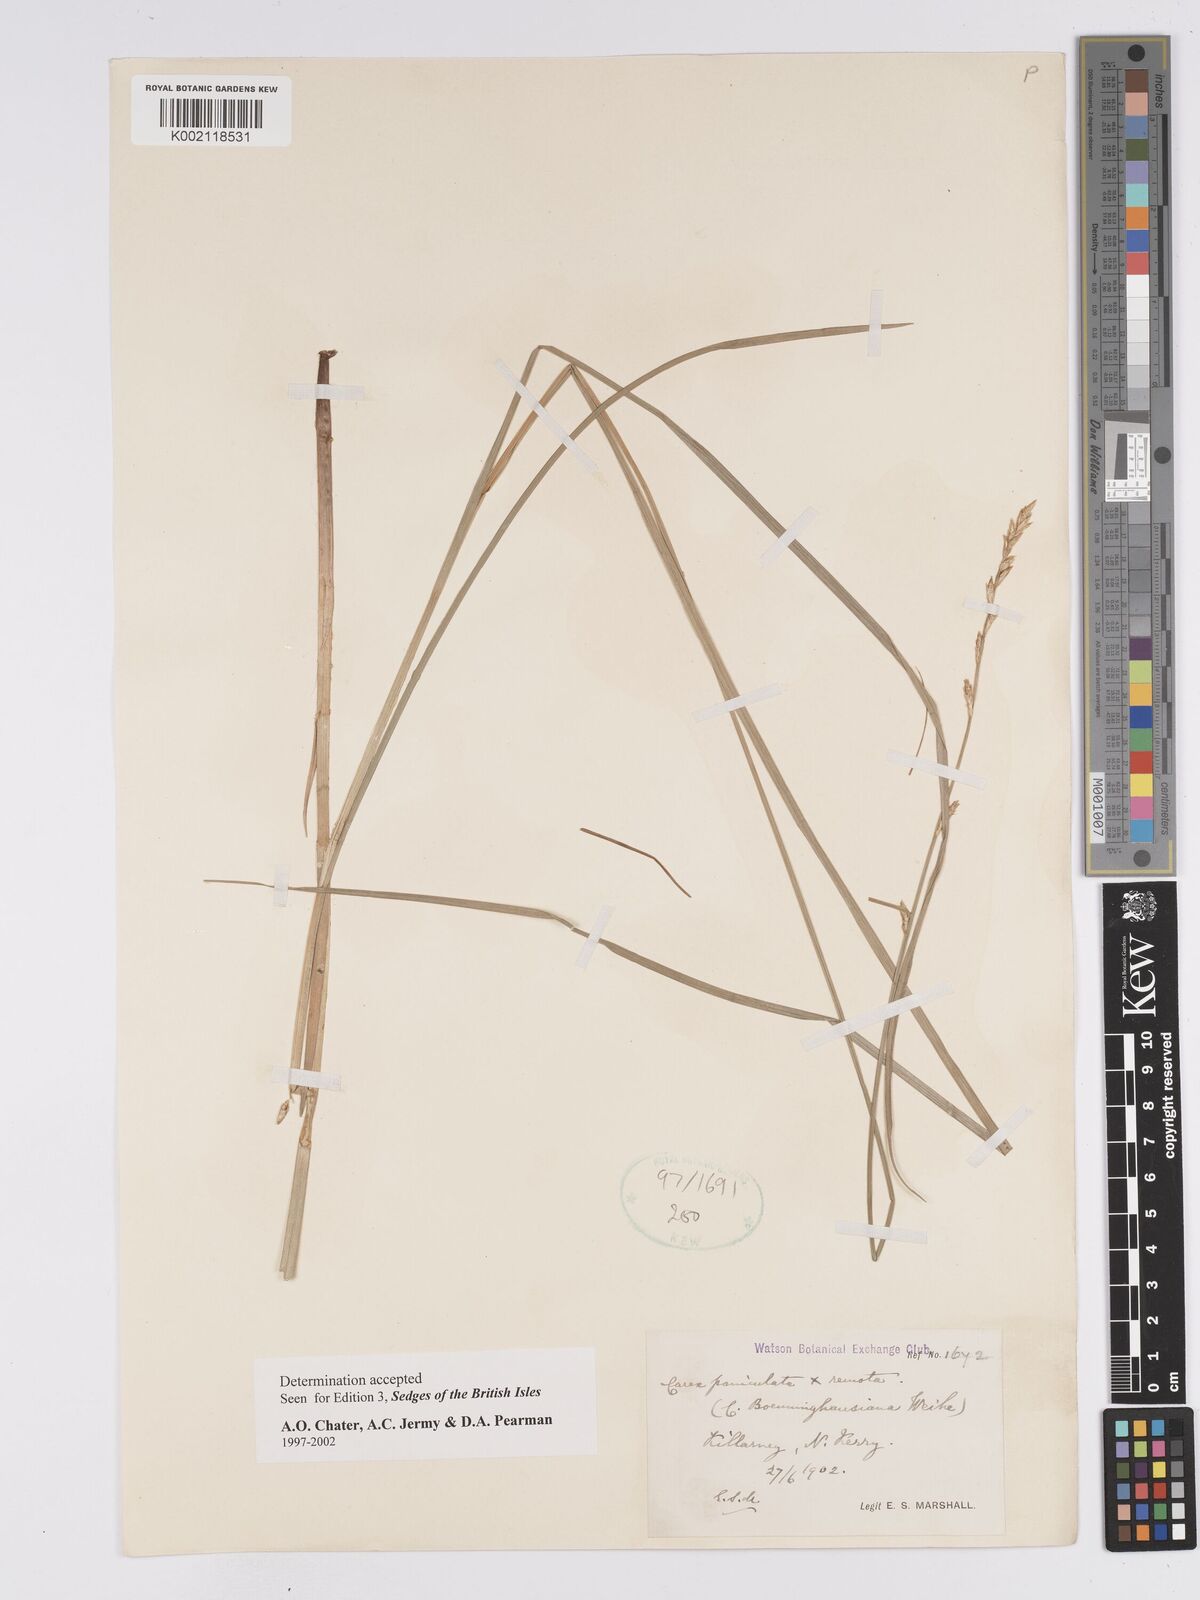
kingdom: Plantae
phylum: Tracheophyta
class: Liliopsida
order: Poales
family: Cyperaceae
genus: Carex
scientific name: Carex boenninghausiana
